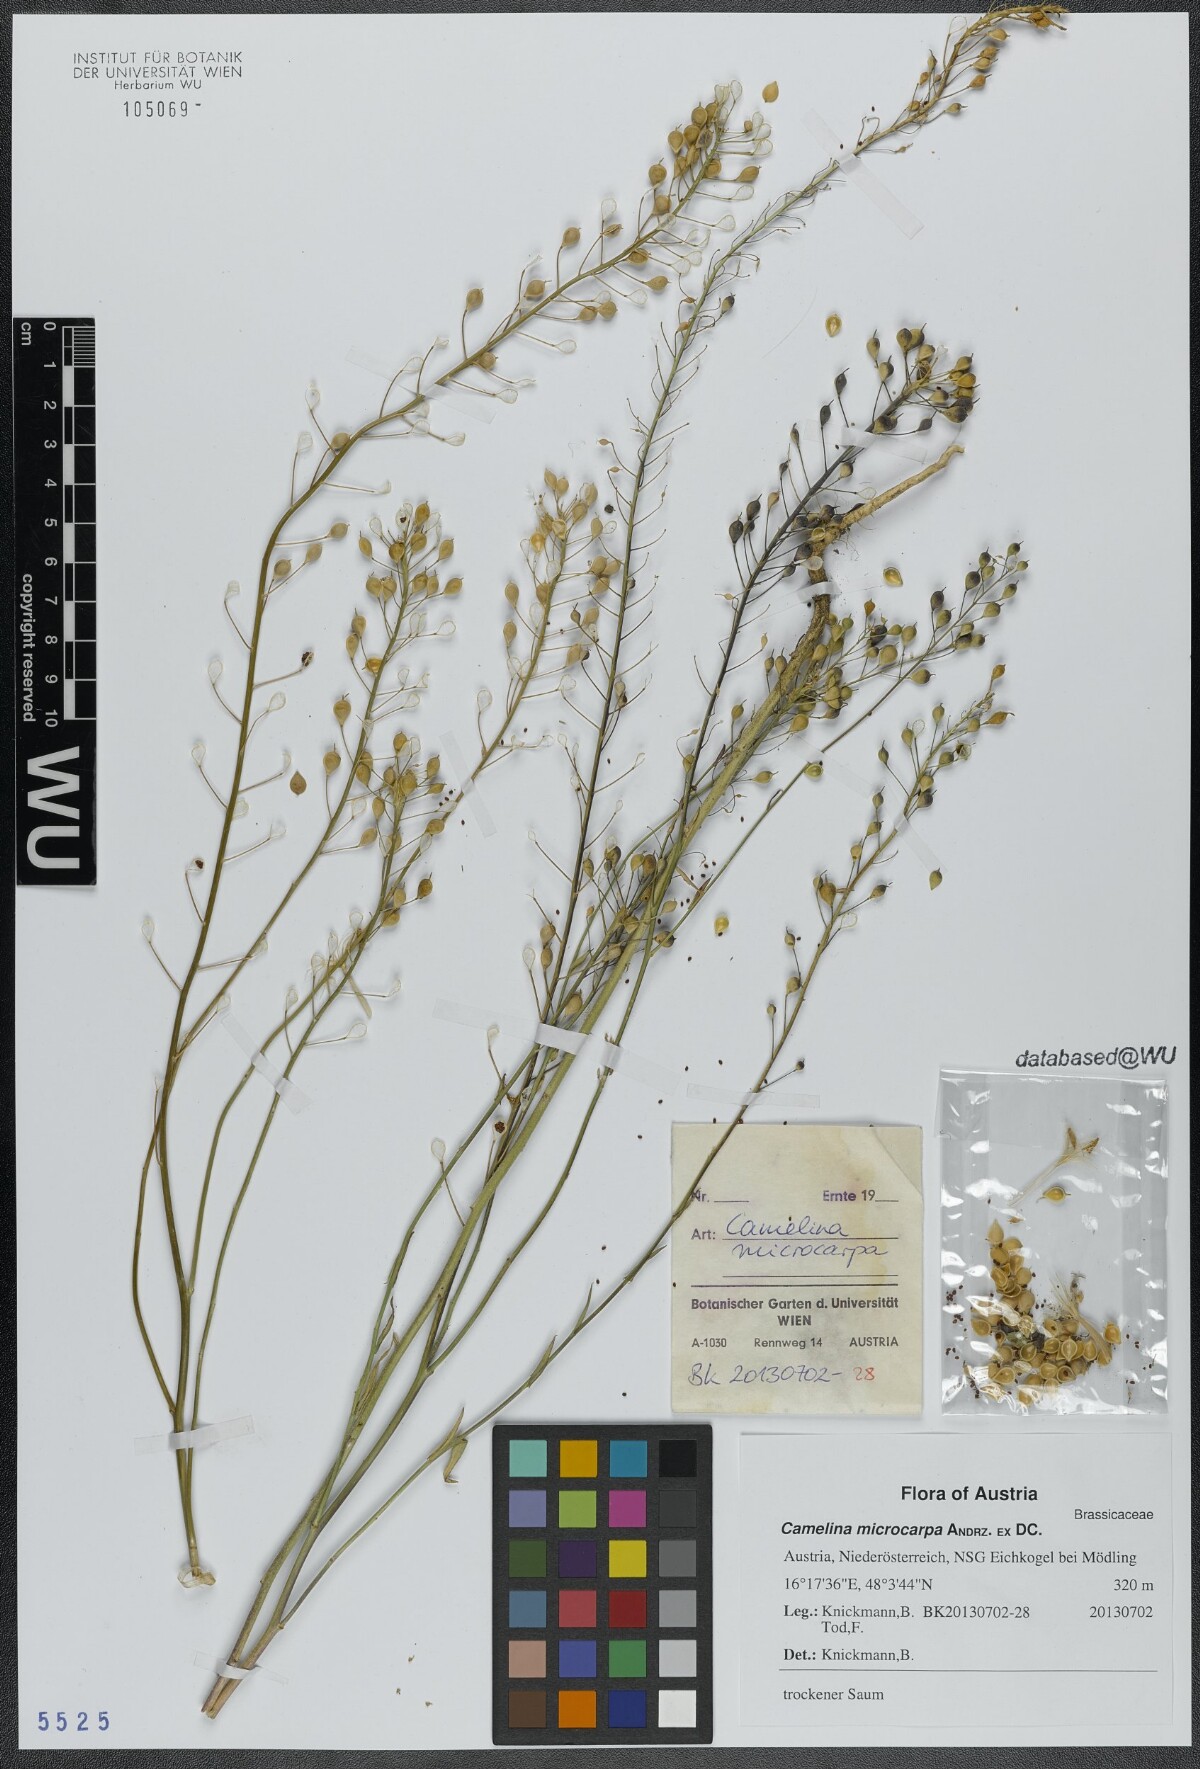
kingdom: Plantae
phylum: Tracheophyta
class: Magnoliopsida
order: Brassicales
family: Brassicaceae
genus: Camelina
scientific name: Camelina microcarpa
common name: Lesser gold-of-pleasure
